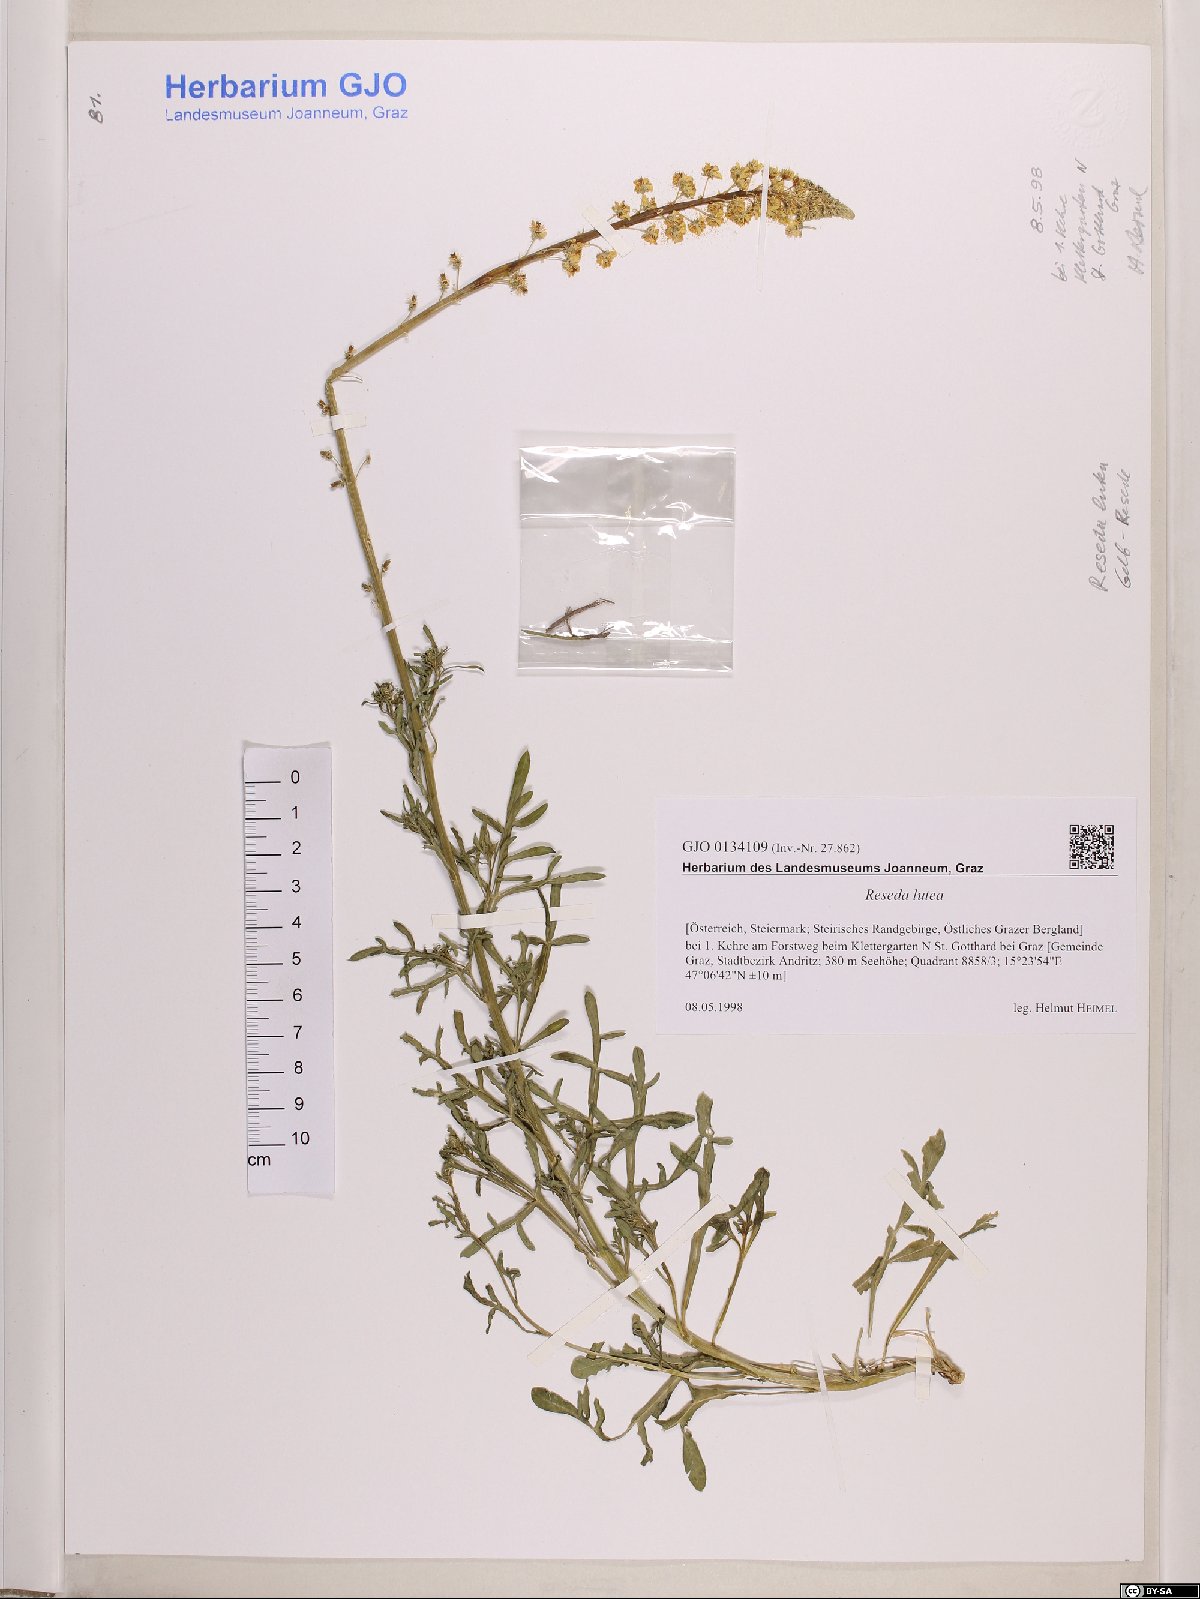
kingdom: Plantae
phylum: Tracheophyta
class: Magnoliopsida
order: Brassicales
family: Resedaceae
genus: Reseda
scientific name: Reseda lutea
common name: Wild mignonette
